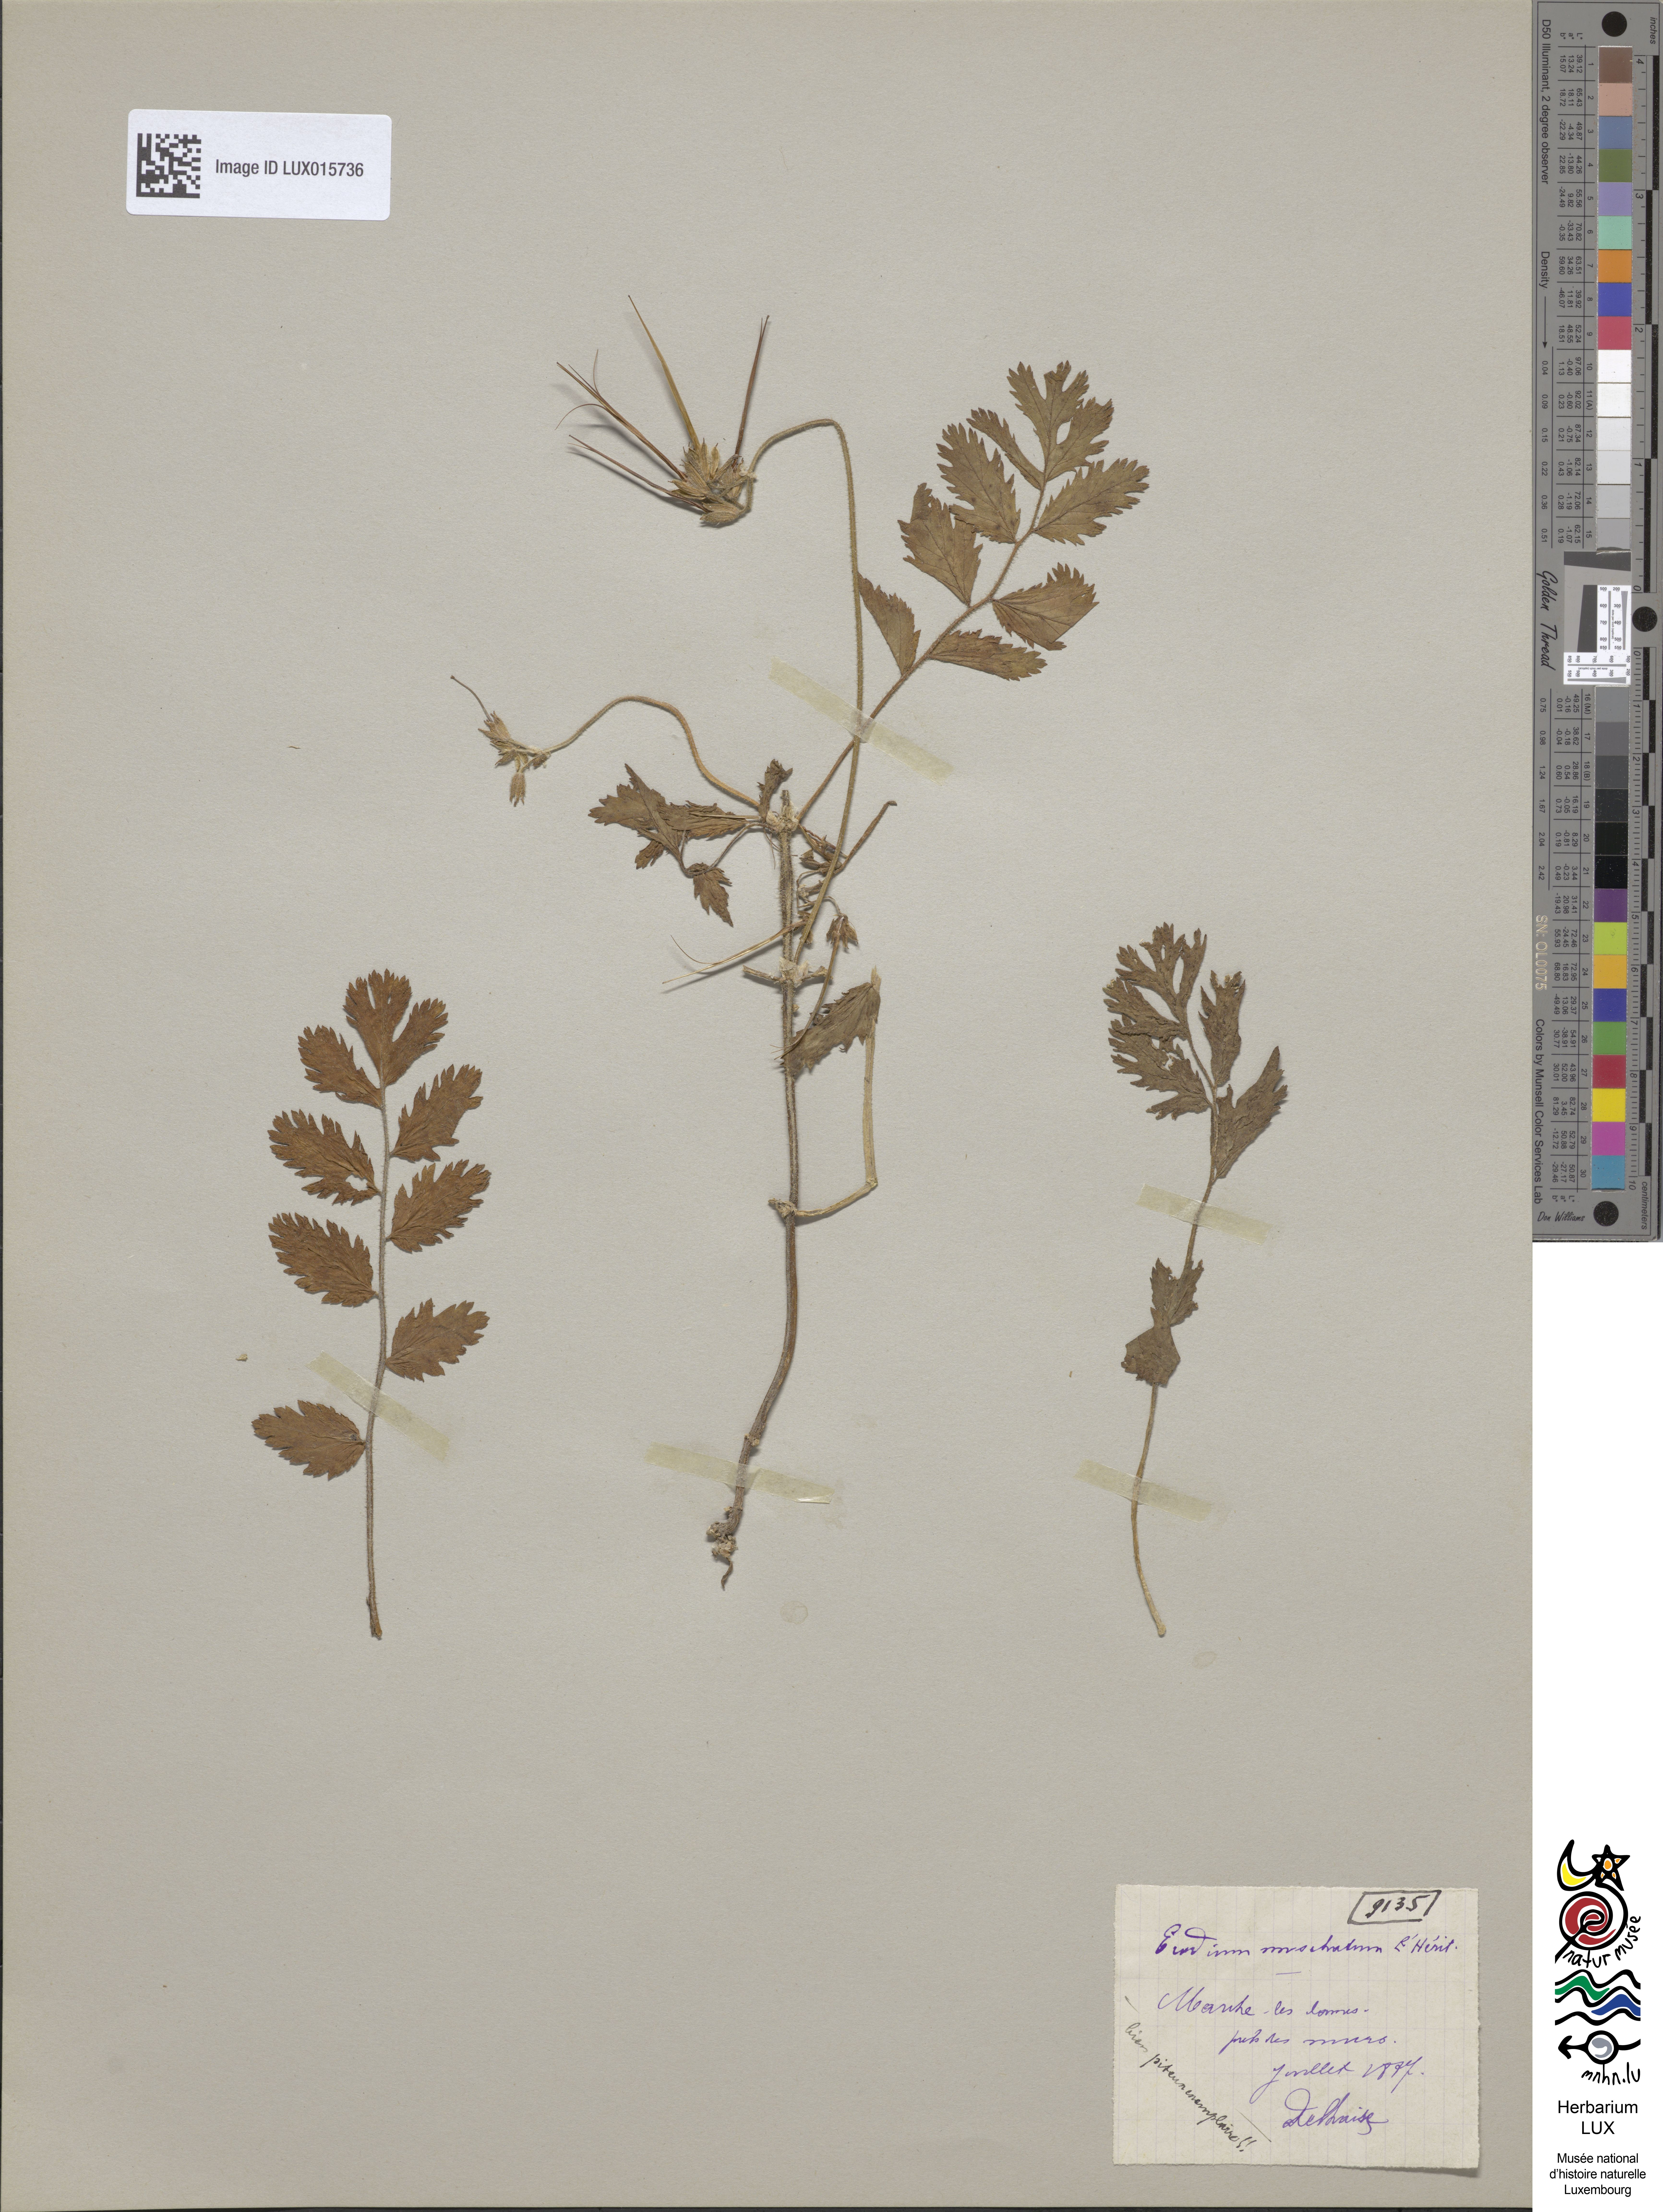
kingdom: Plantae
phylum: Tracheophyta
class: Magnoliopsida
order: Geraniales
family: Geraniaceae
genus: Erodium
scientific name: Erodium moschatum
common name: Musk stork's-bill
